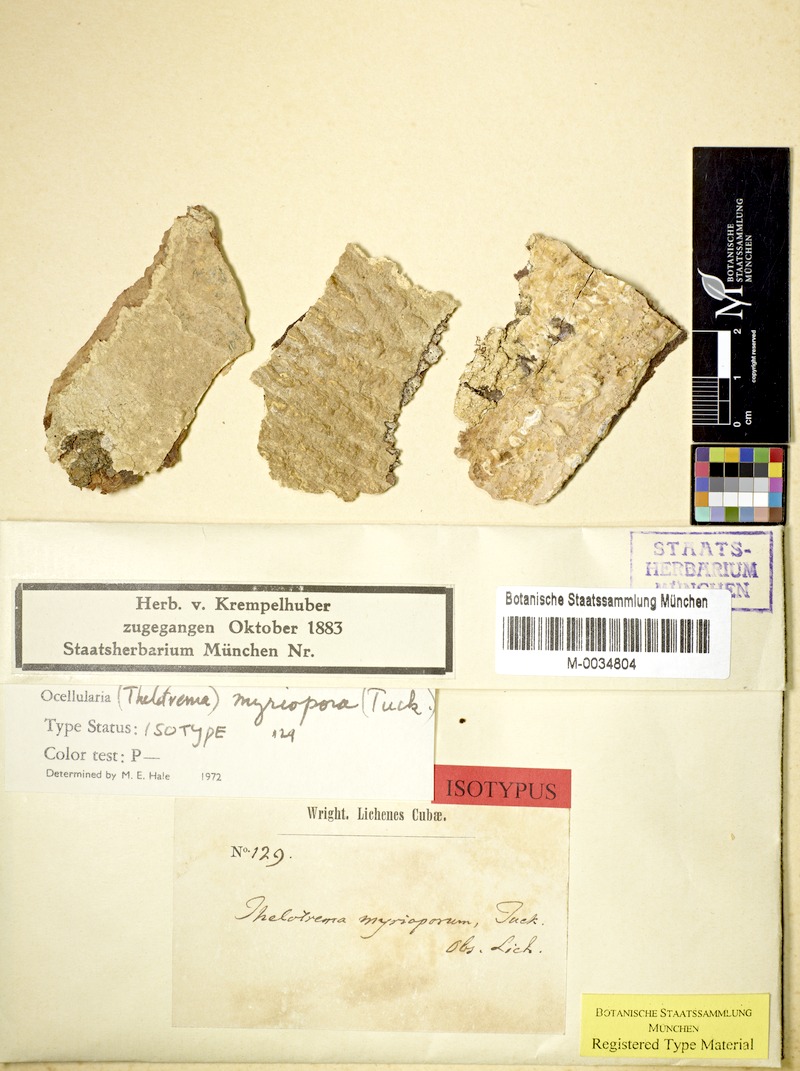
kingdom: Fungi
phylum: Ascomycota
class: Lecanoromycetes
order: Ostropales
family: Graphidaceae
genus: Myriotrema
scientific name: Myriotrema myrioporum
